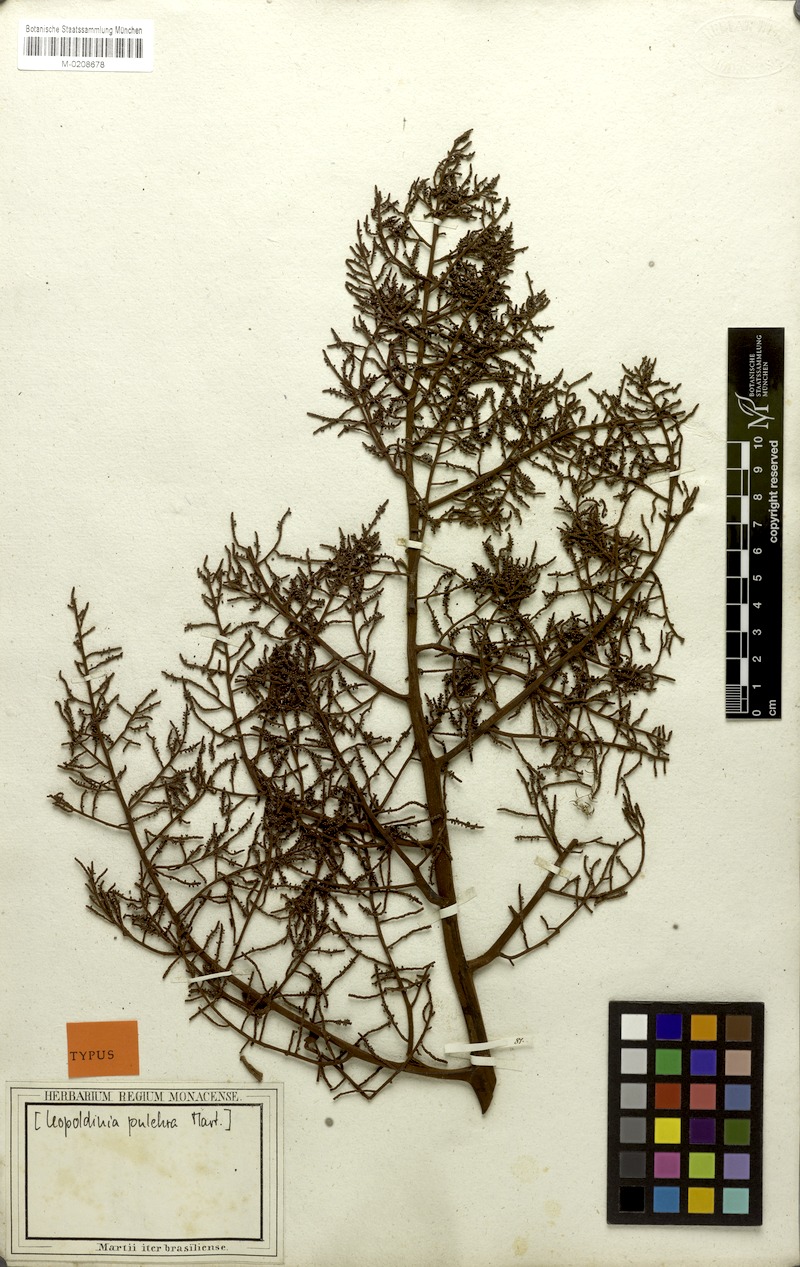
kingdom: Plantae
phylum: Tracheophyta
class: Liliopsida
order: Arecales
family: Arecaceae
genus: Leopoldinia
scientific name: Leopoldinia pulchra
